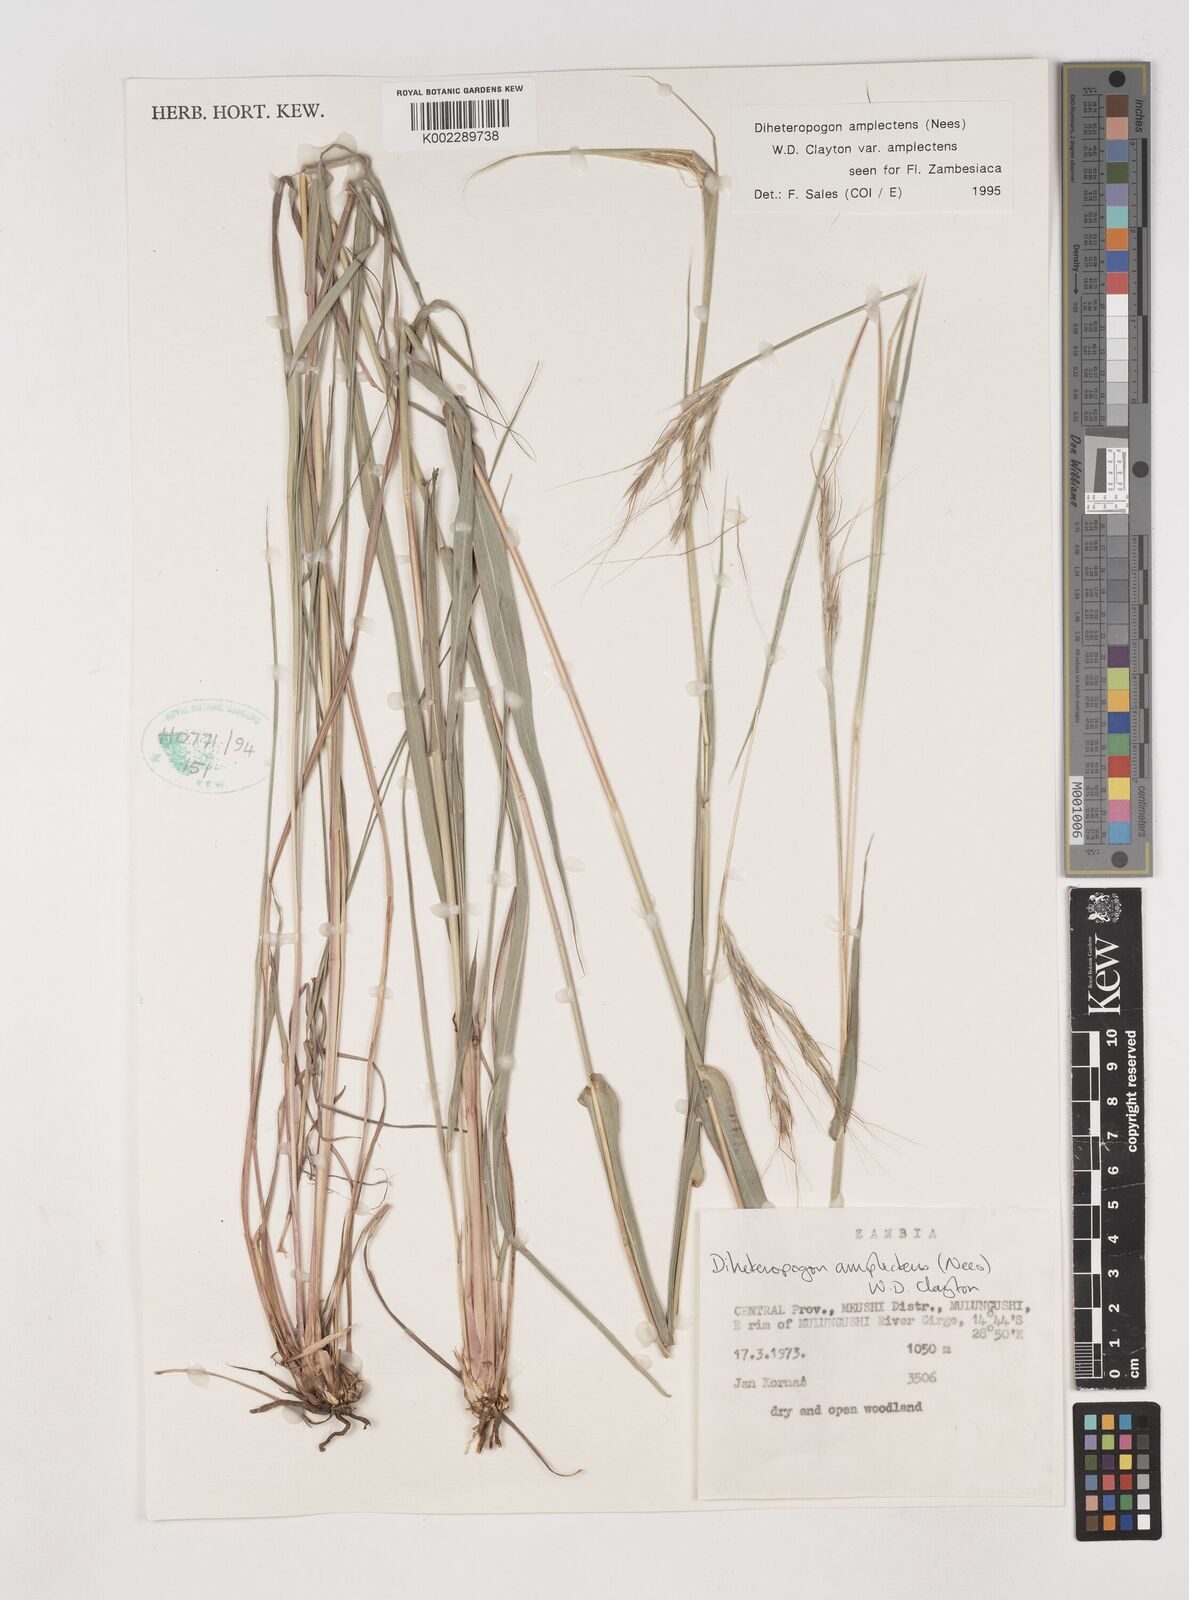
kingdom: Plantae
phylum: Tracheophyta
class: Liliopsida
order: Poales
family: Poaceae
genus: Diheteropogon
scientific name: Diheteropogon amplectens
